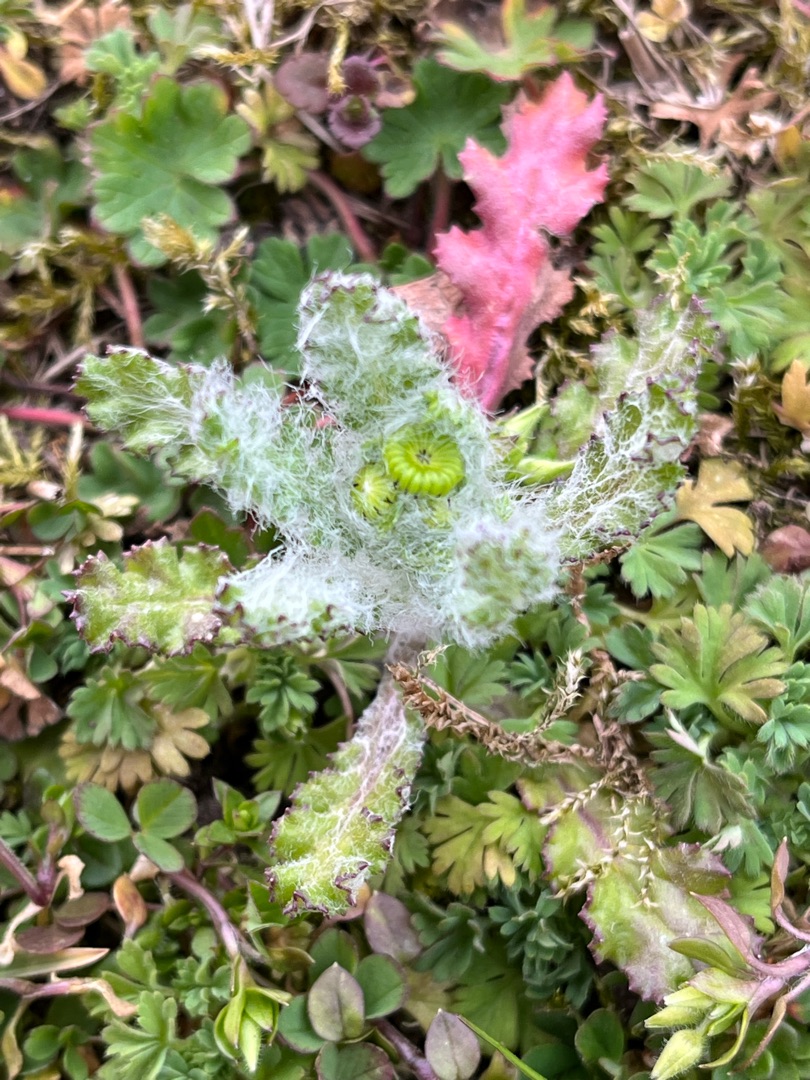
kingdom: Plantae
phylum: Tracheophyta
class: Magnoliopsida
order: Asterales
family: Asteraceae
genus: Senecio
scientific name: Senecio leucanthemifolius
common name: Vår-brandbæger
